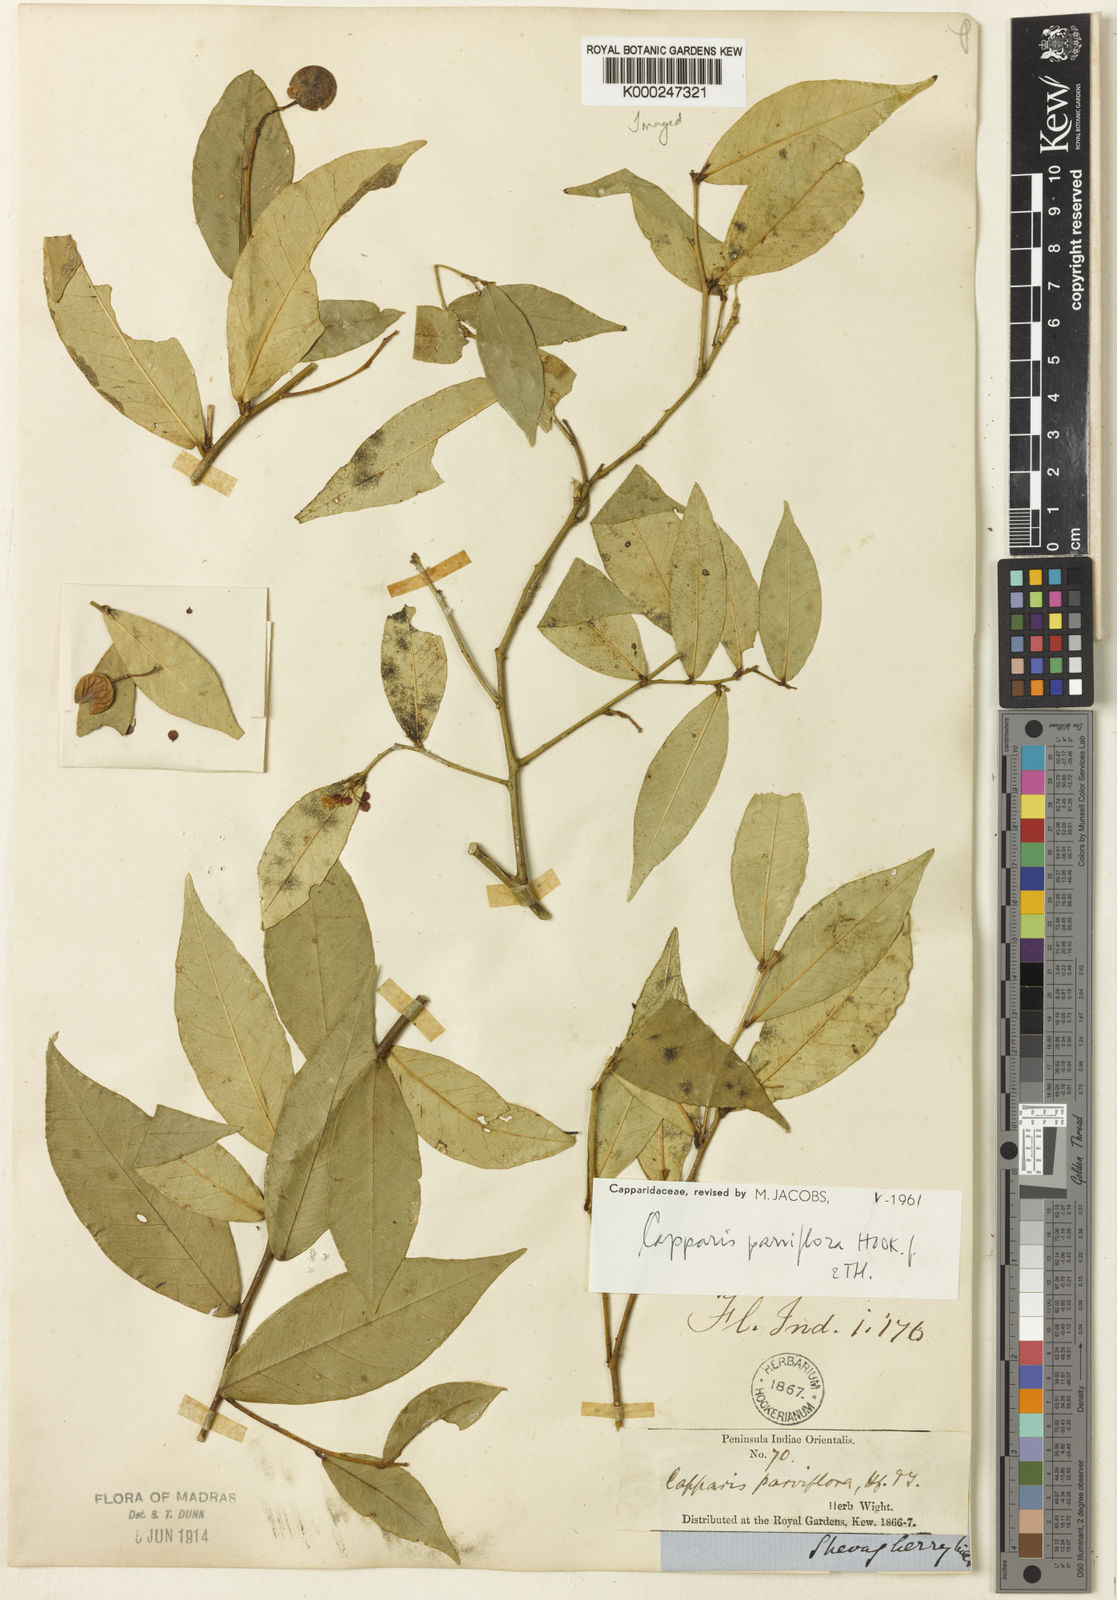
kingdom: Plantae
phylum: Tracheophyta
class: Magnoliopsida
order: Brassicales
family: Capparaceae
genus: Capparis
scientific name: Capparis shevaroyensis
